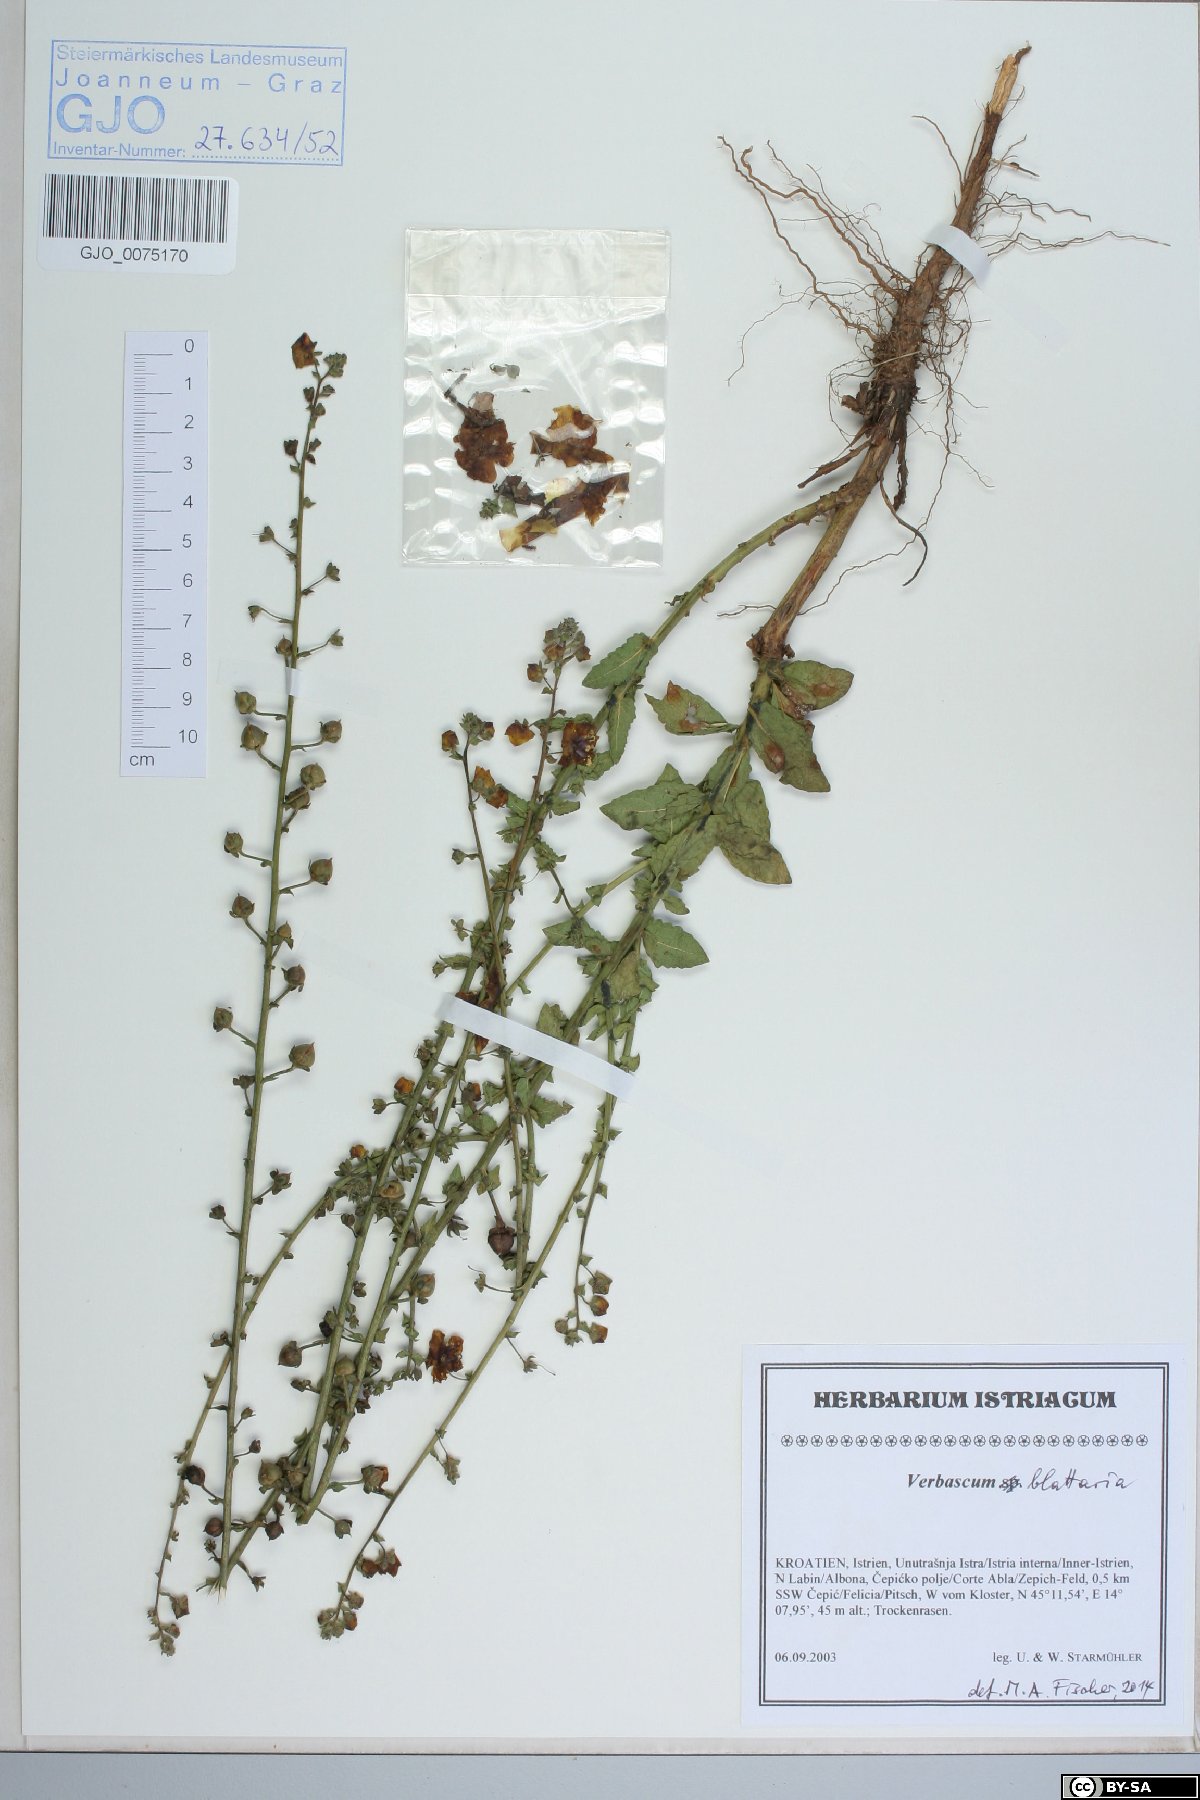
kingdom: Plantae
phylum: Tracheophyta
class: Magnoliopsida
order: Lamiales
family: Scrophulariaceae
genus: Verbascum
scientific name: Verbascum blattaria
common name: Moth mullein
